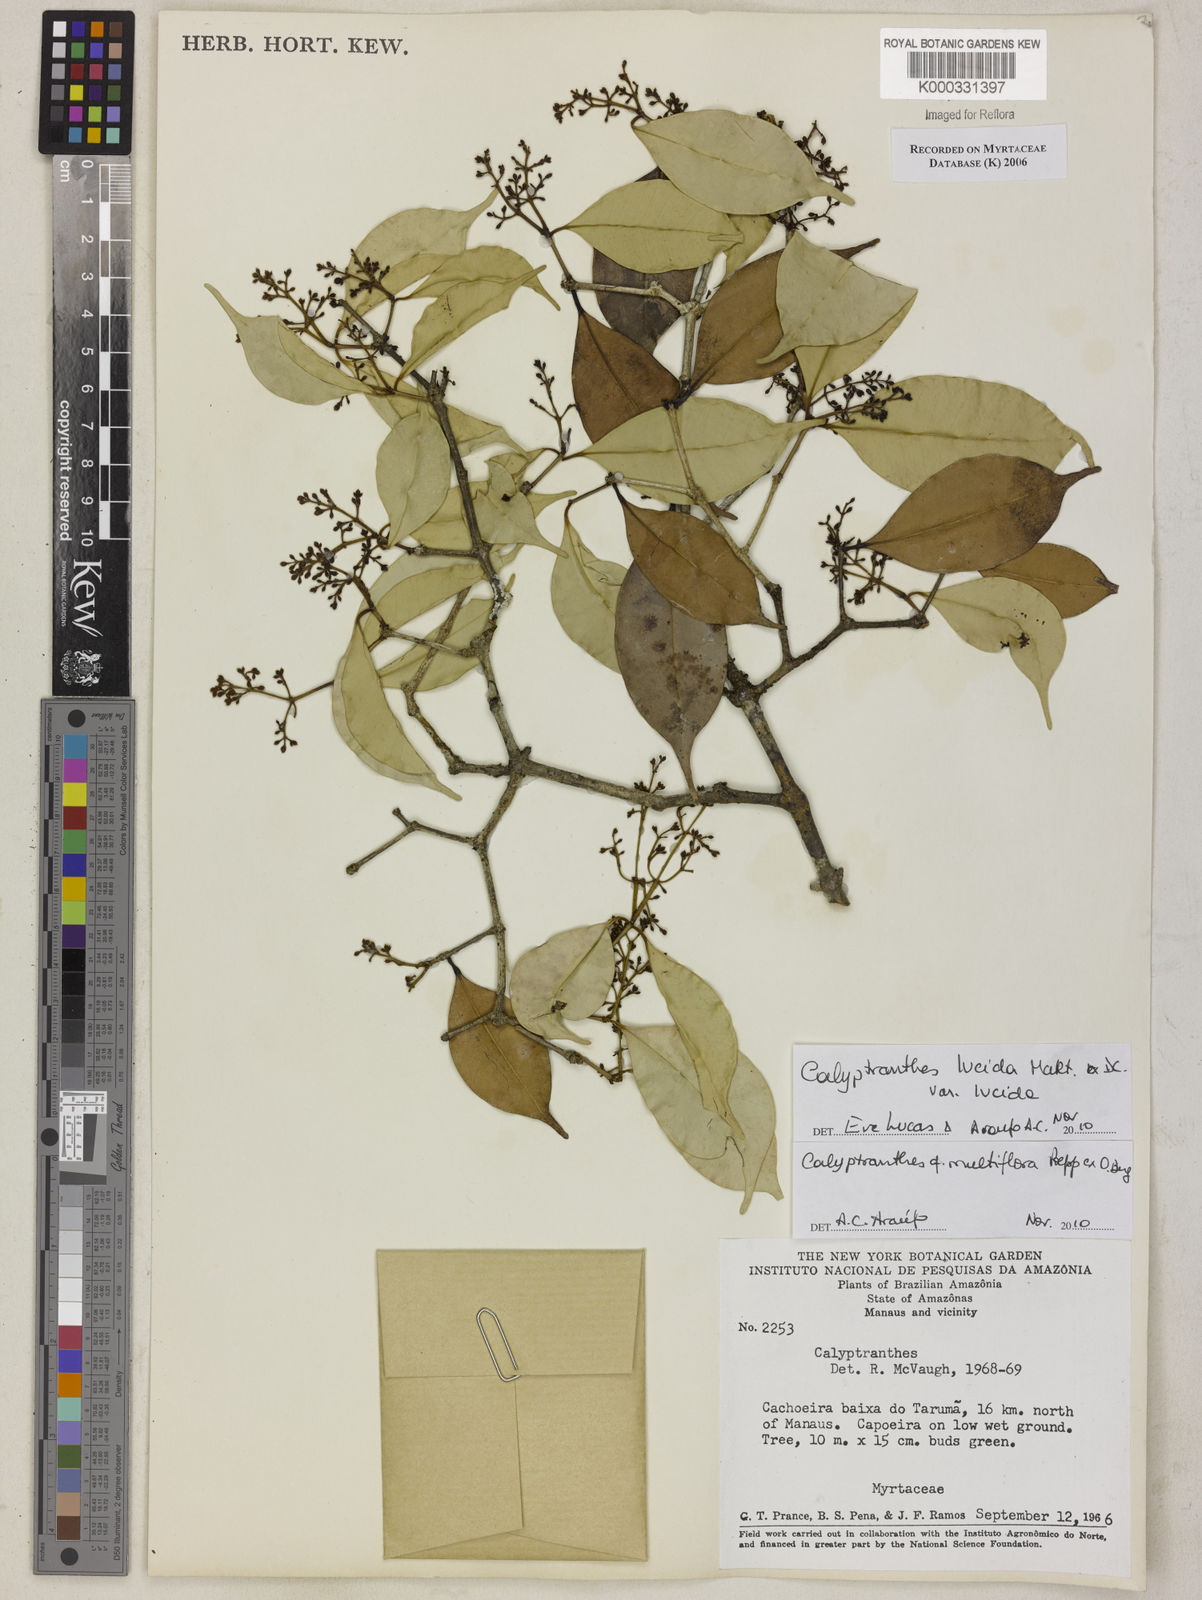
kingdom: Plantae
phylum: Tracheophyta
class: Magnoliopsida
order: Myrtales
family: Myrtaceae
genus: Calyptranthes
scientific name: Calyptranthes
